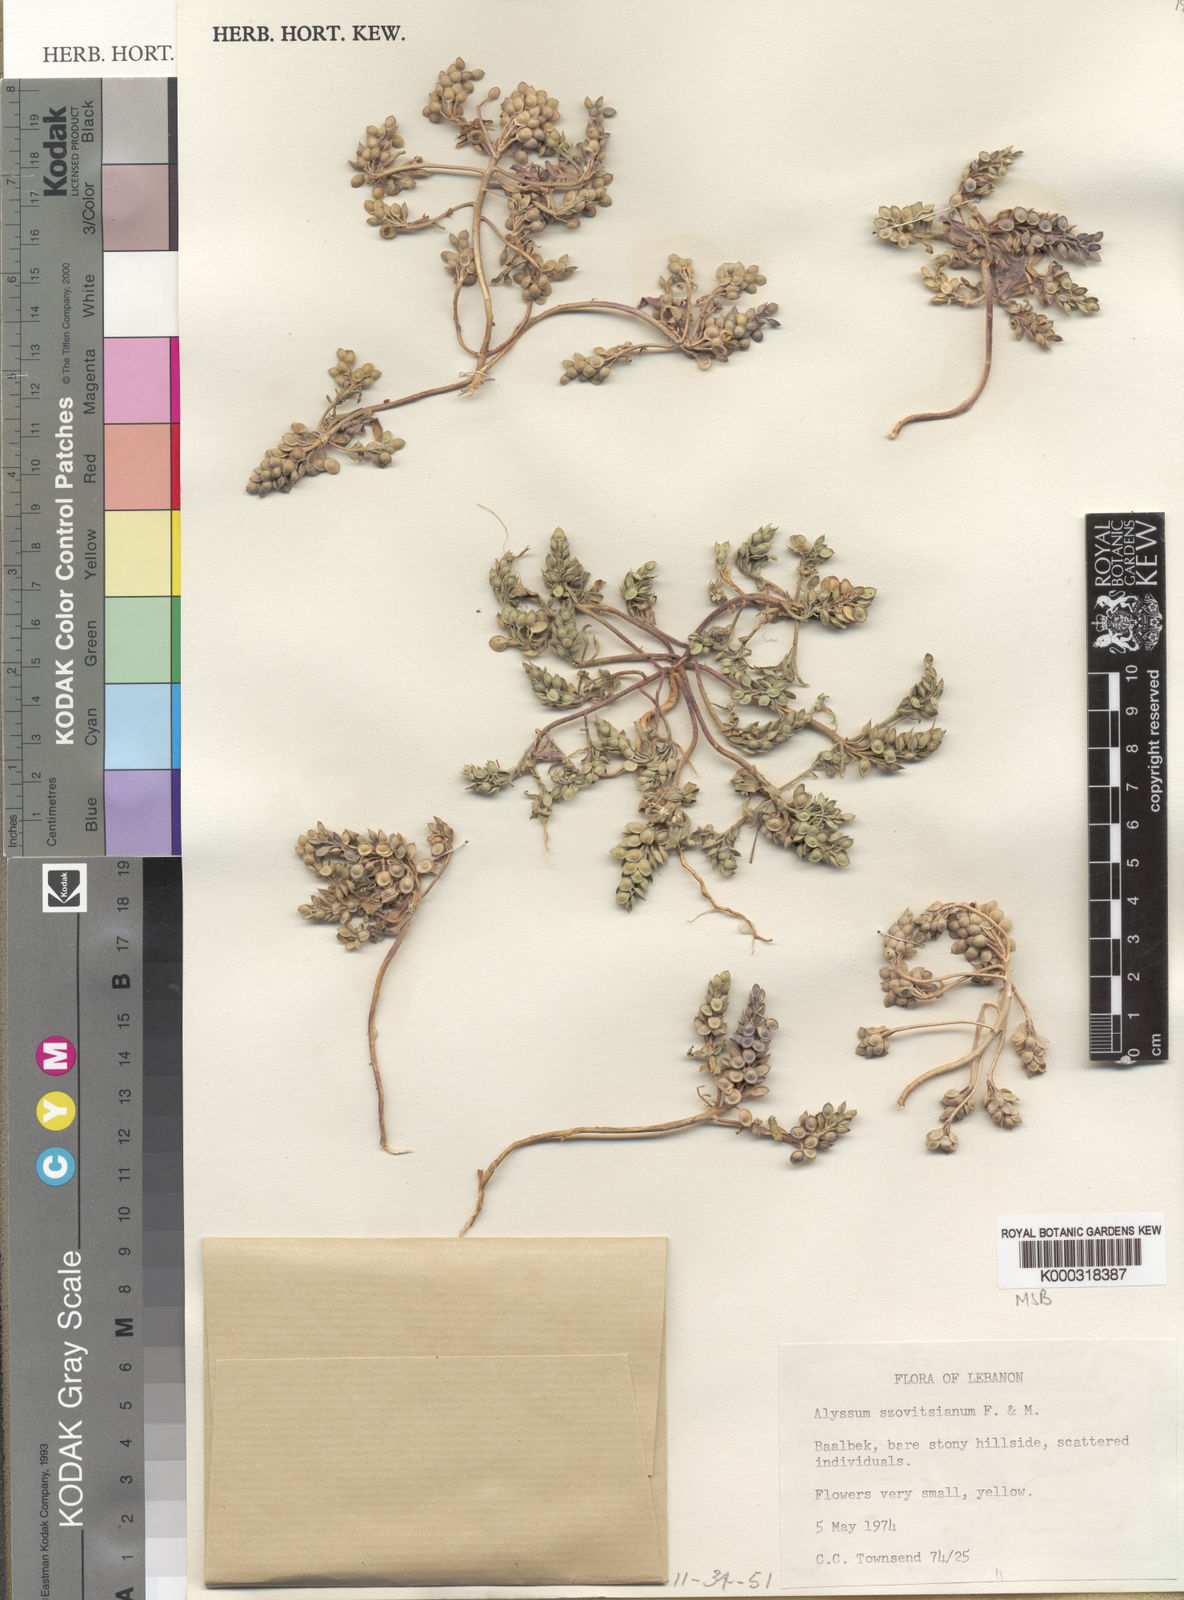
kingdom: Plantae
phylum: Tracheophyta
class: Magnoliopsida
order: Brassicales
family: Brassicaceae
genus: Alyssum
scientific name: Alyssum
